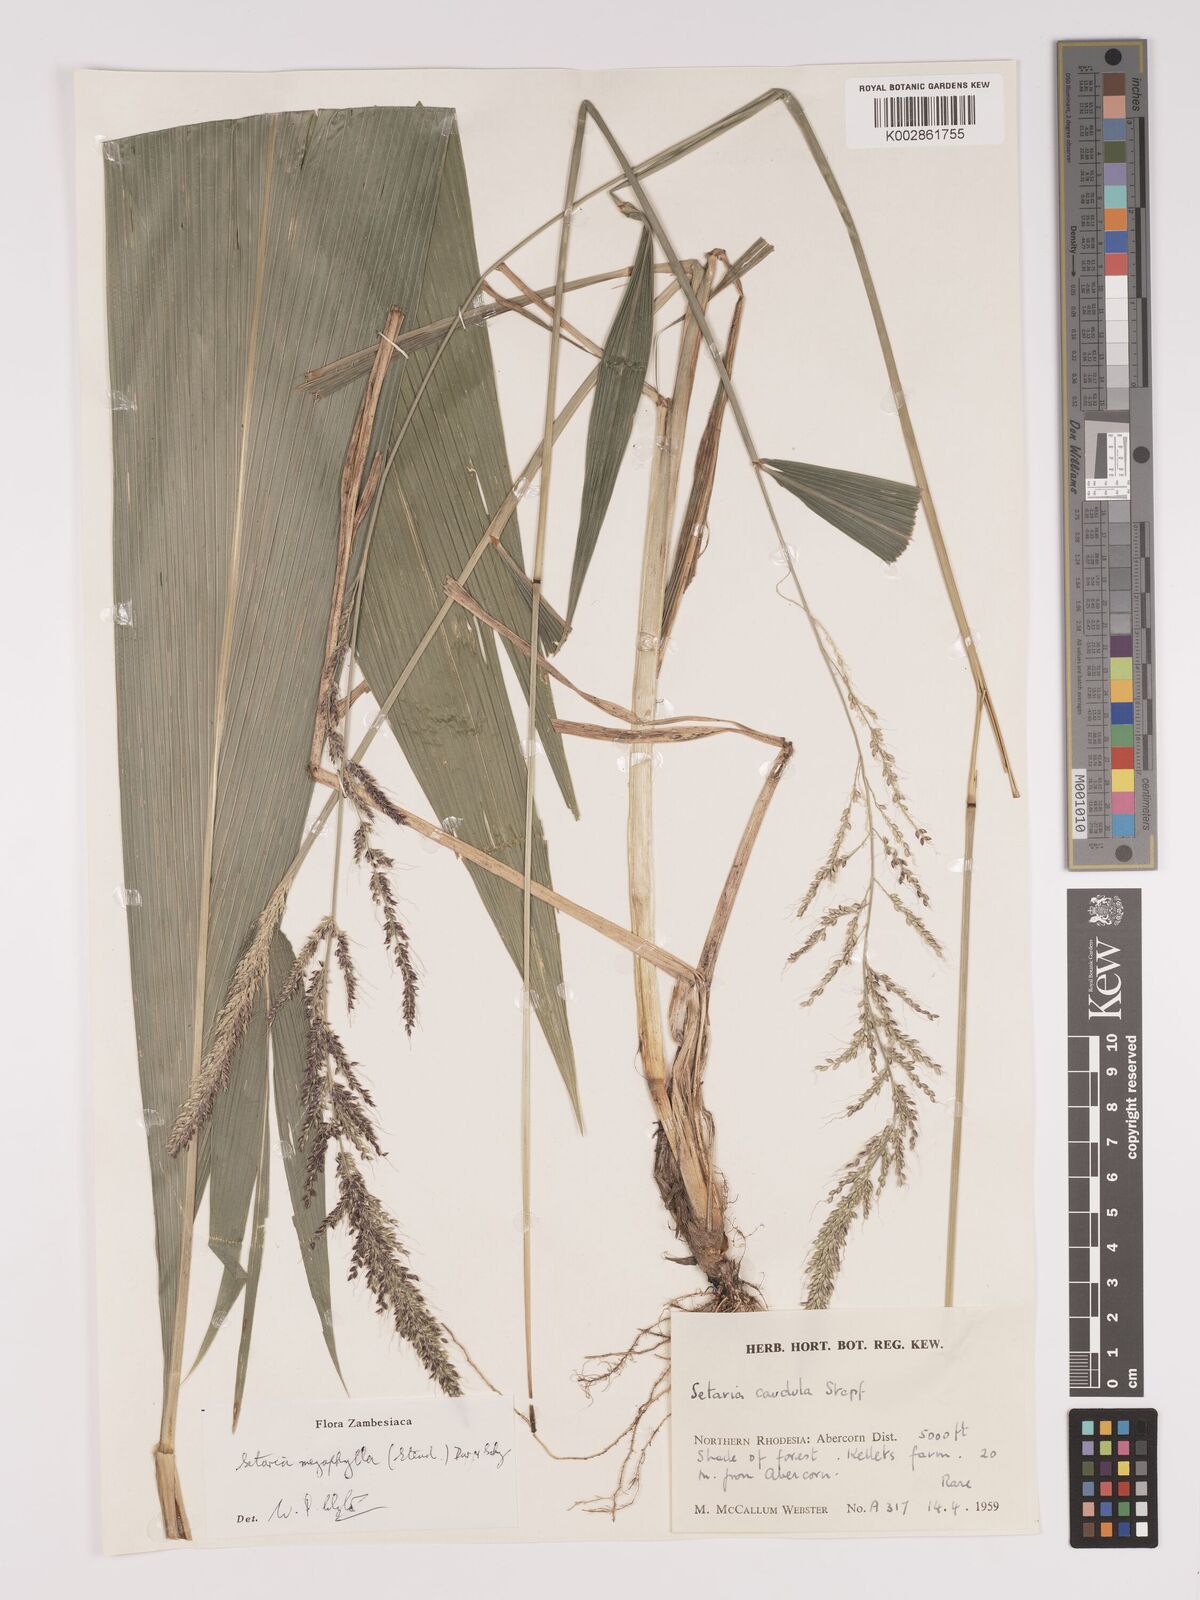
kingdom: Plantae
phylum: Tracheophyta
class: Liliopsida
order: Poales
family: Poaceae
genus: Setaria
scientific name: Setaria megaphylla
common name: Bigleaf bristlegrass
